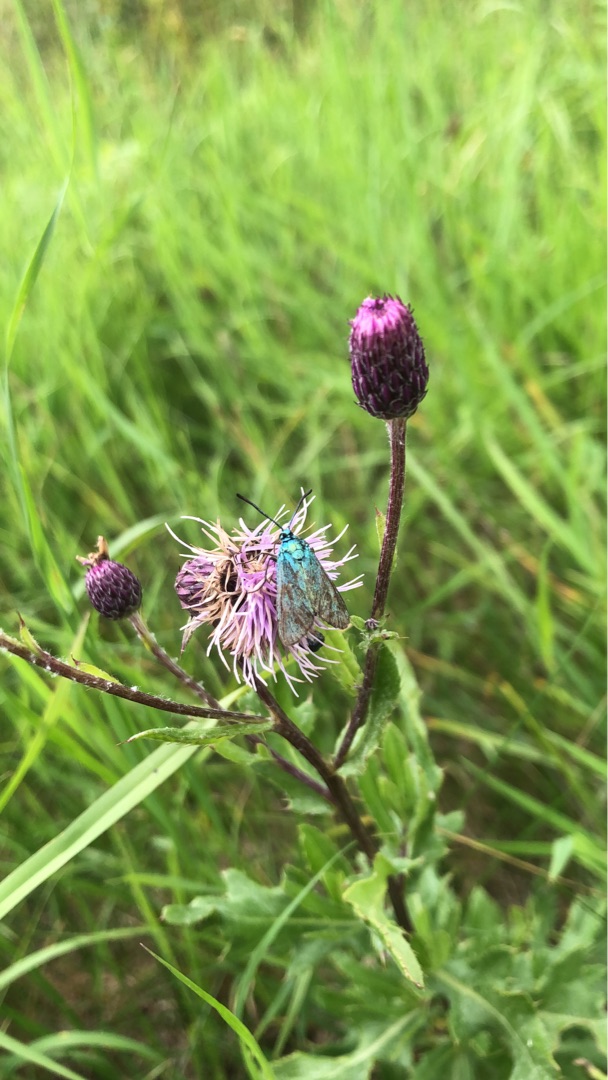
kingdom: Animalia
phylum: Arthropoda
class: Insecta
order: Lepidoptera
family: Zygaenidae
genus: Adscita
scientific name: Adscita statices
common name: Metalvinge
